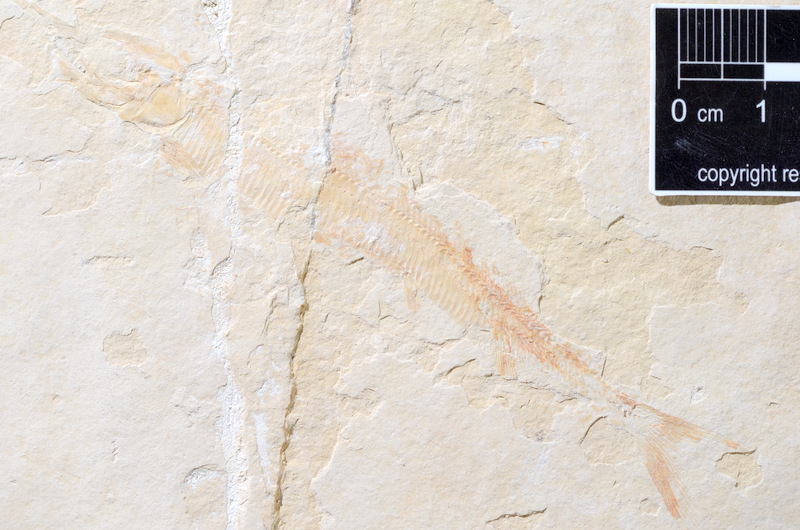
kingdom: Animalia
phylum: Chordata
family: Aspidorhynchidae
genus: Aspidorhynchus
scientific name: Aspidorhynchus acutirostris
